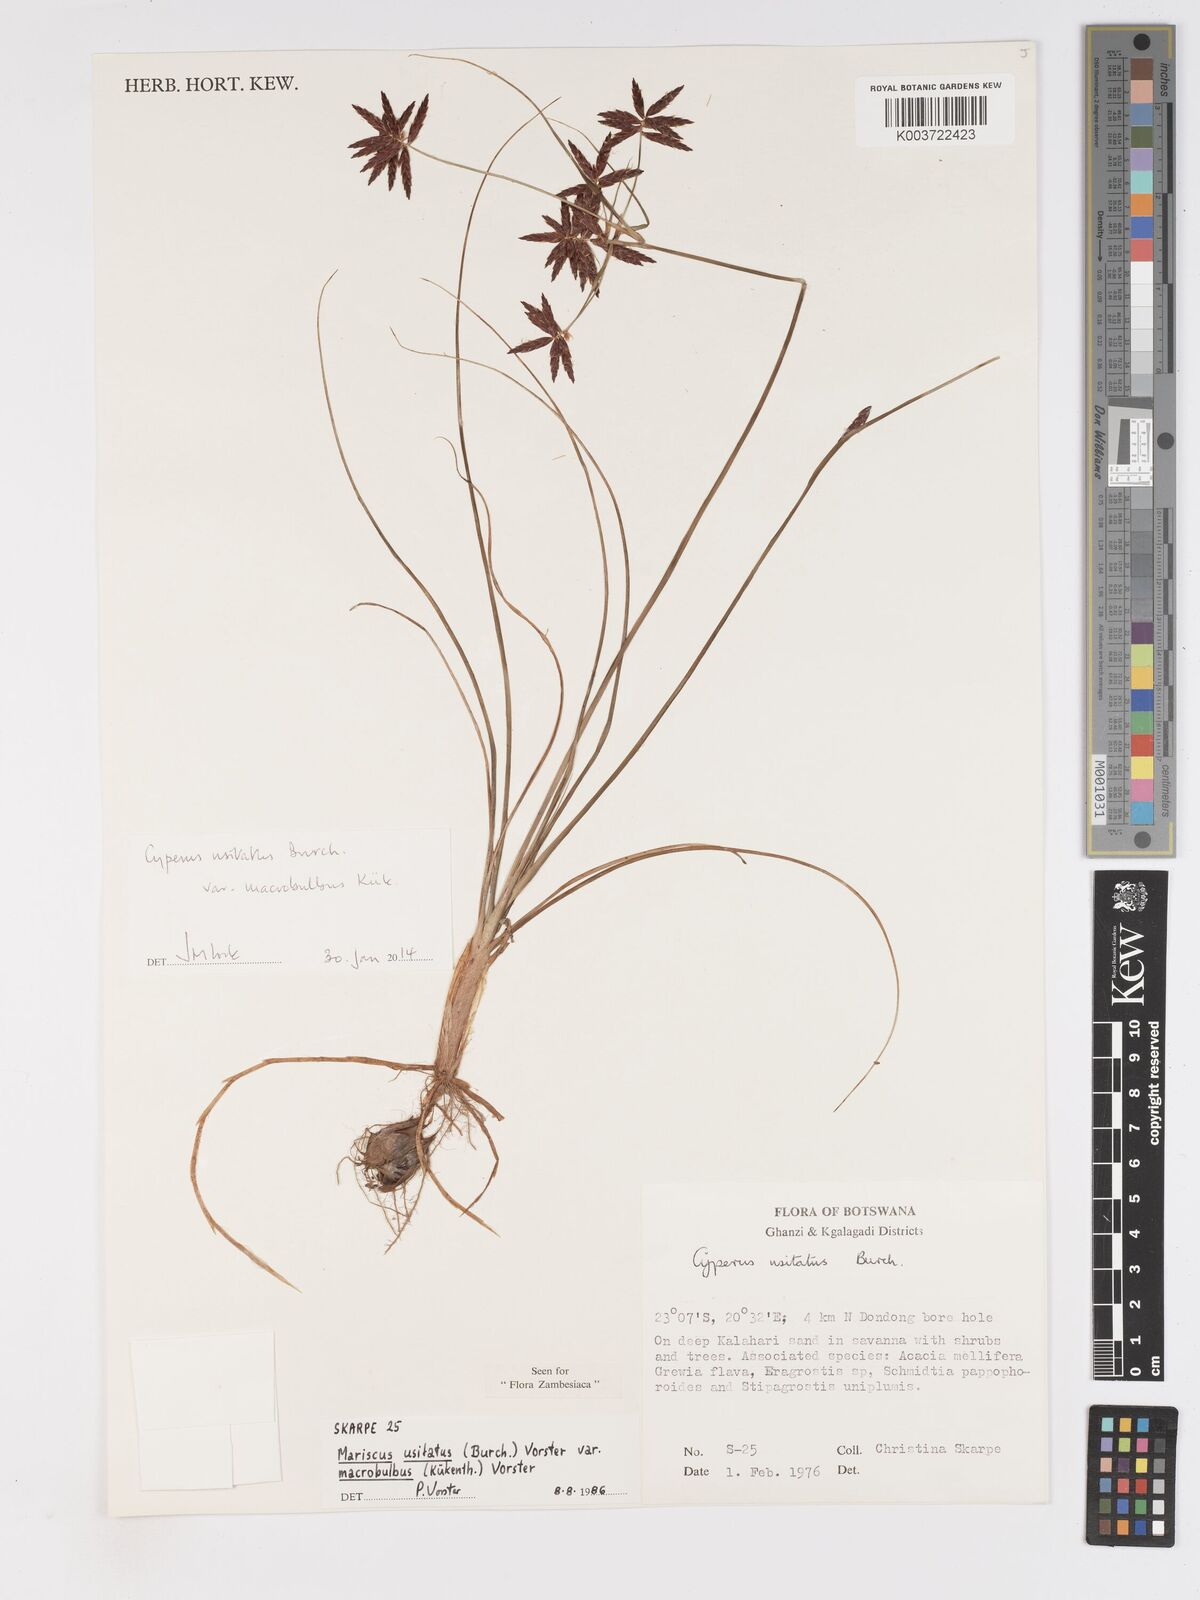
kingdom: Plantae
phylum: Tracheophyta
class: Liliopsida
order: Poales
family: Cyperaceae
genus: Cyperus
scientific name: Cyperus usitatus
